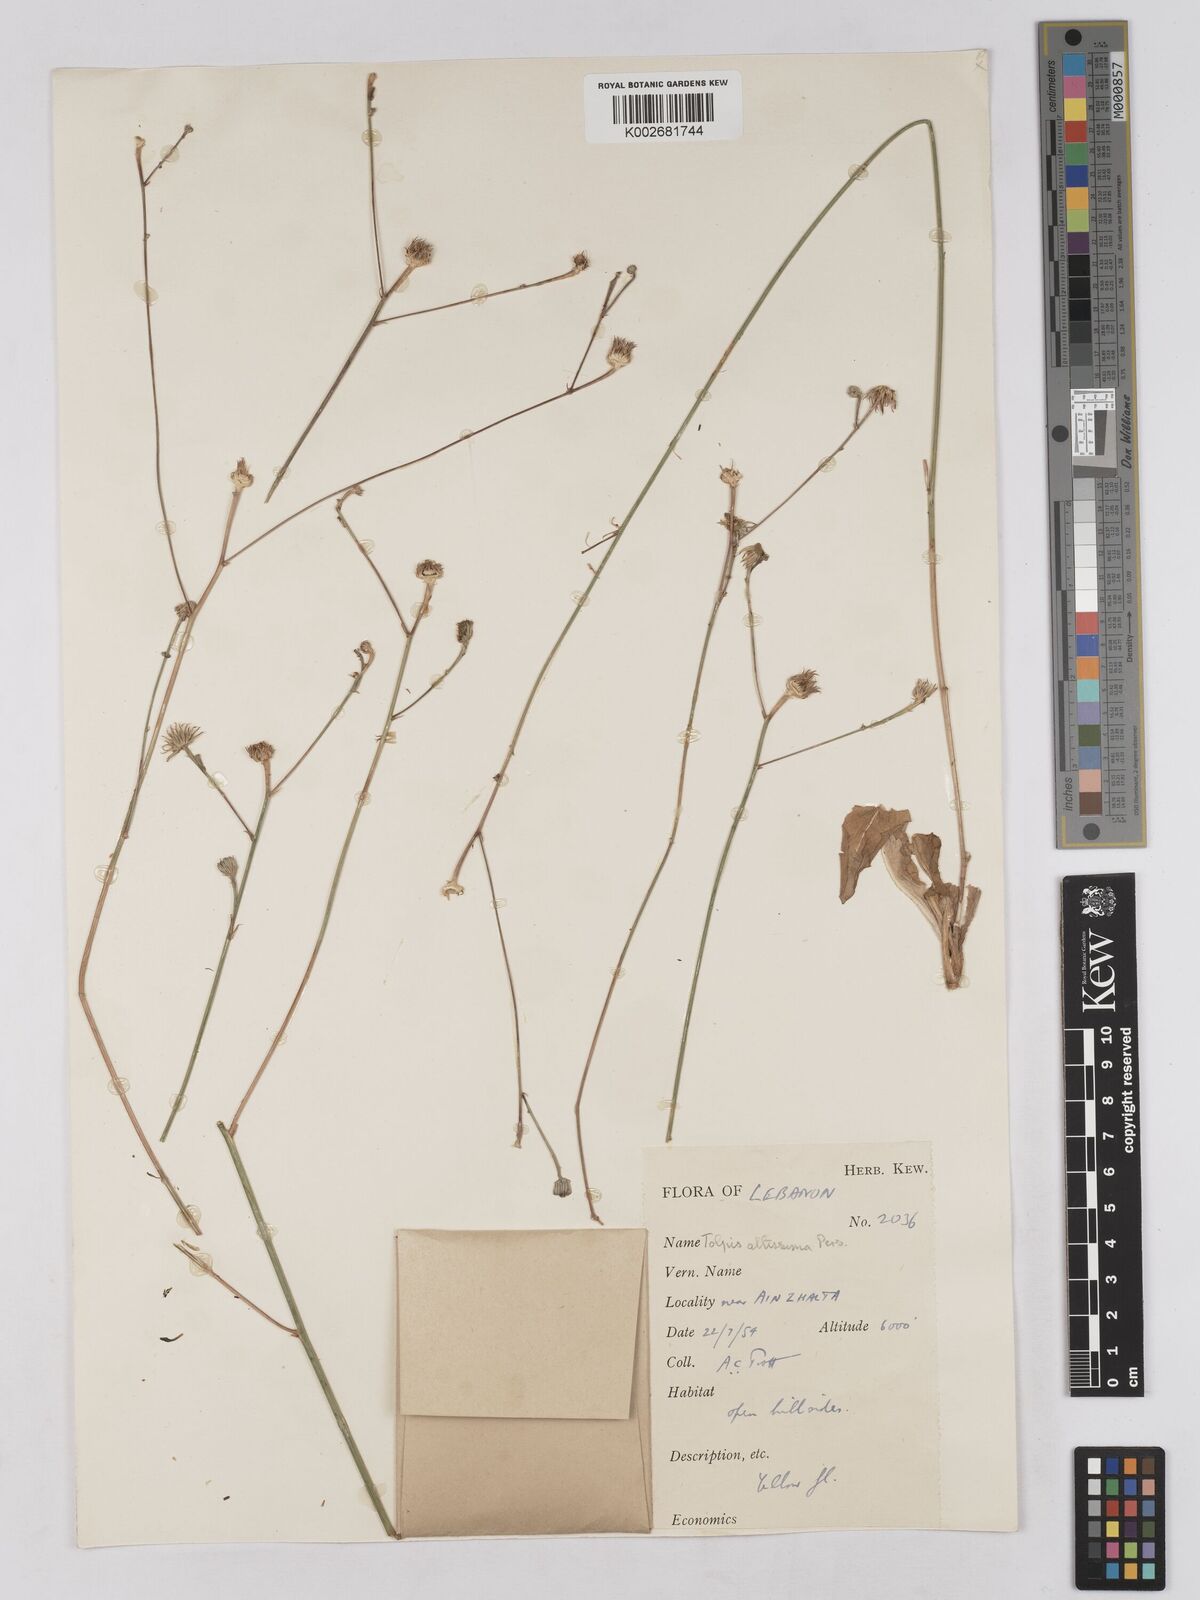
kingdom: Plantae
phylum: Tracheophyta
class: Magnoliopsida
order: Asterales
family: Asteraceae
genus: Tolpis
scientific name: Tolpis virgata
